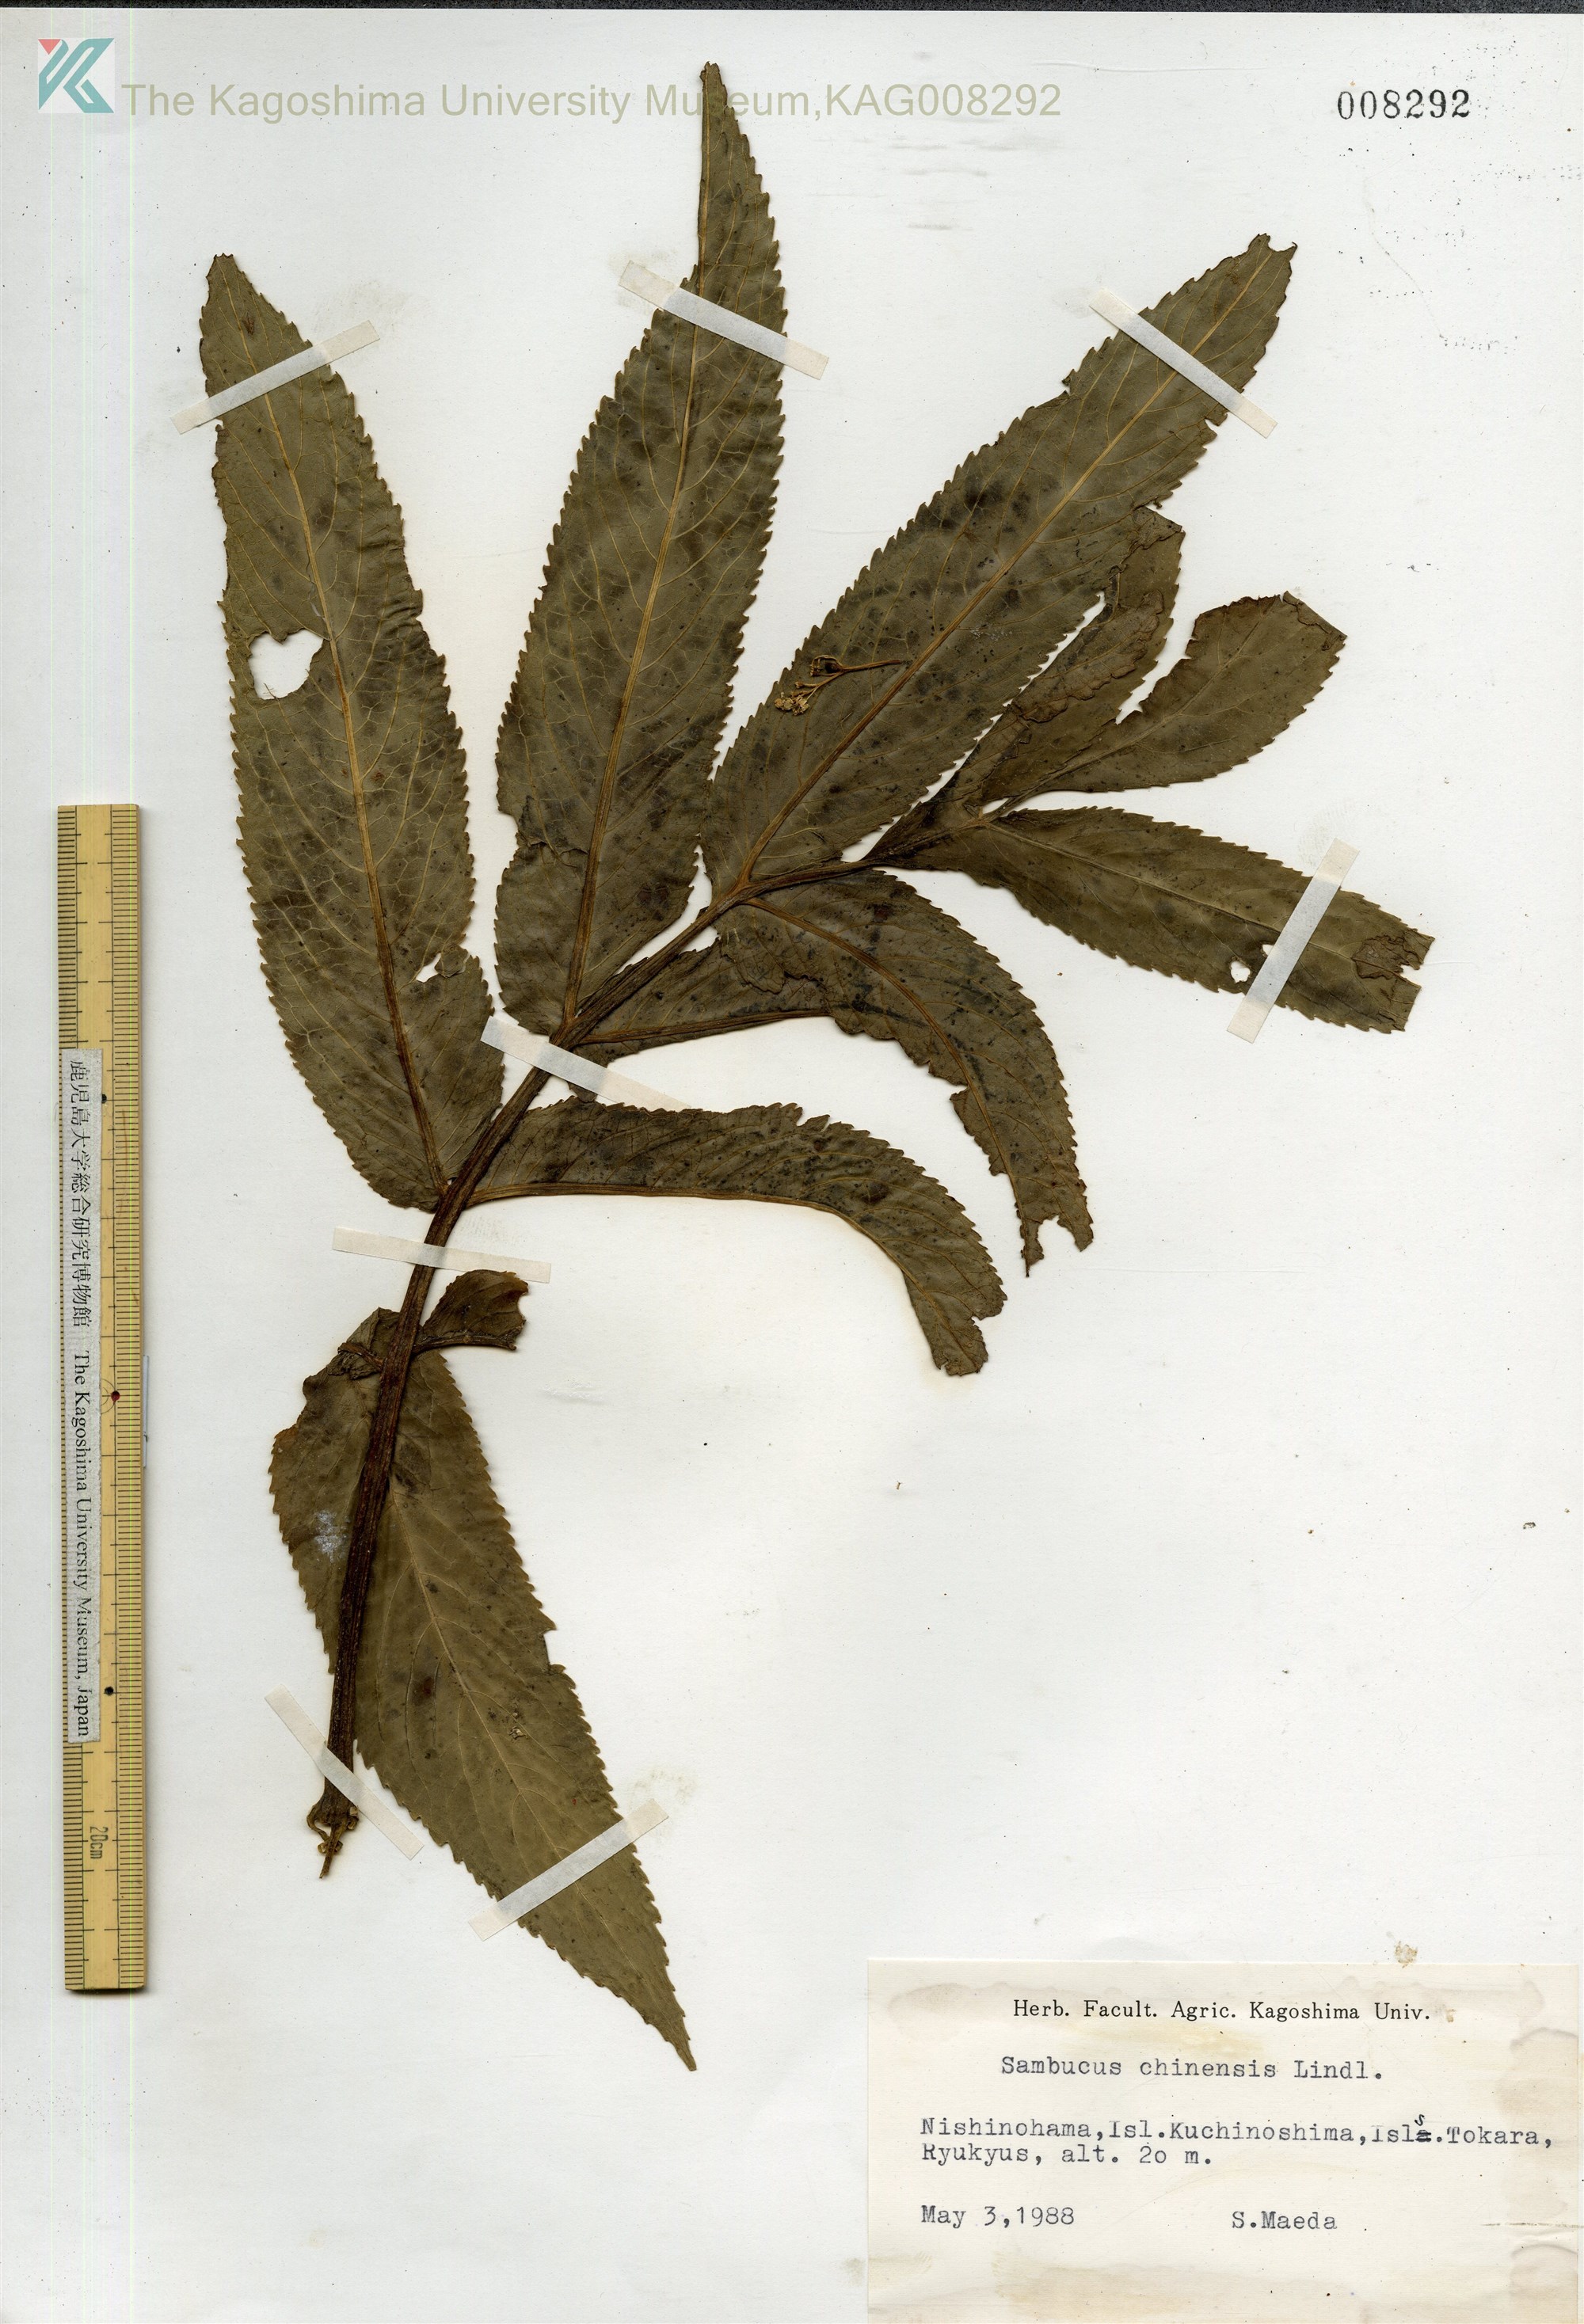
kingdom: Plantae
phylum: Tracheophyta
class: Magnoliopsida
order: Dipsacales
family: Viburnaceae
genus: Sambucus
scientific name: Sambucus javanica
